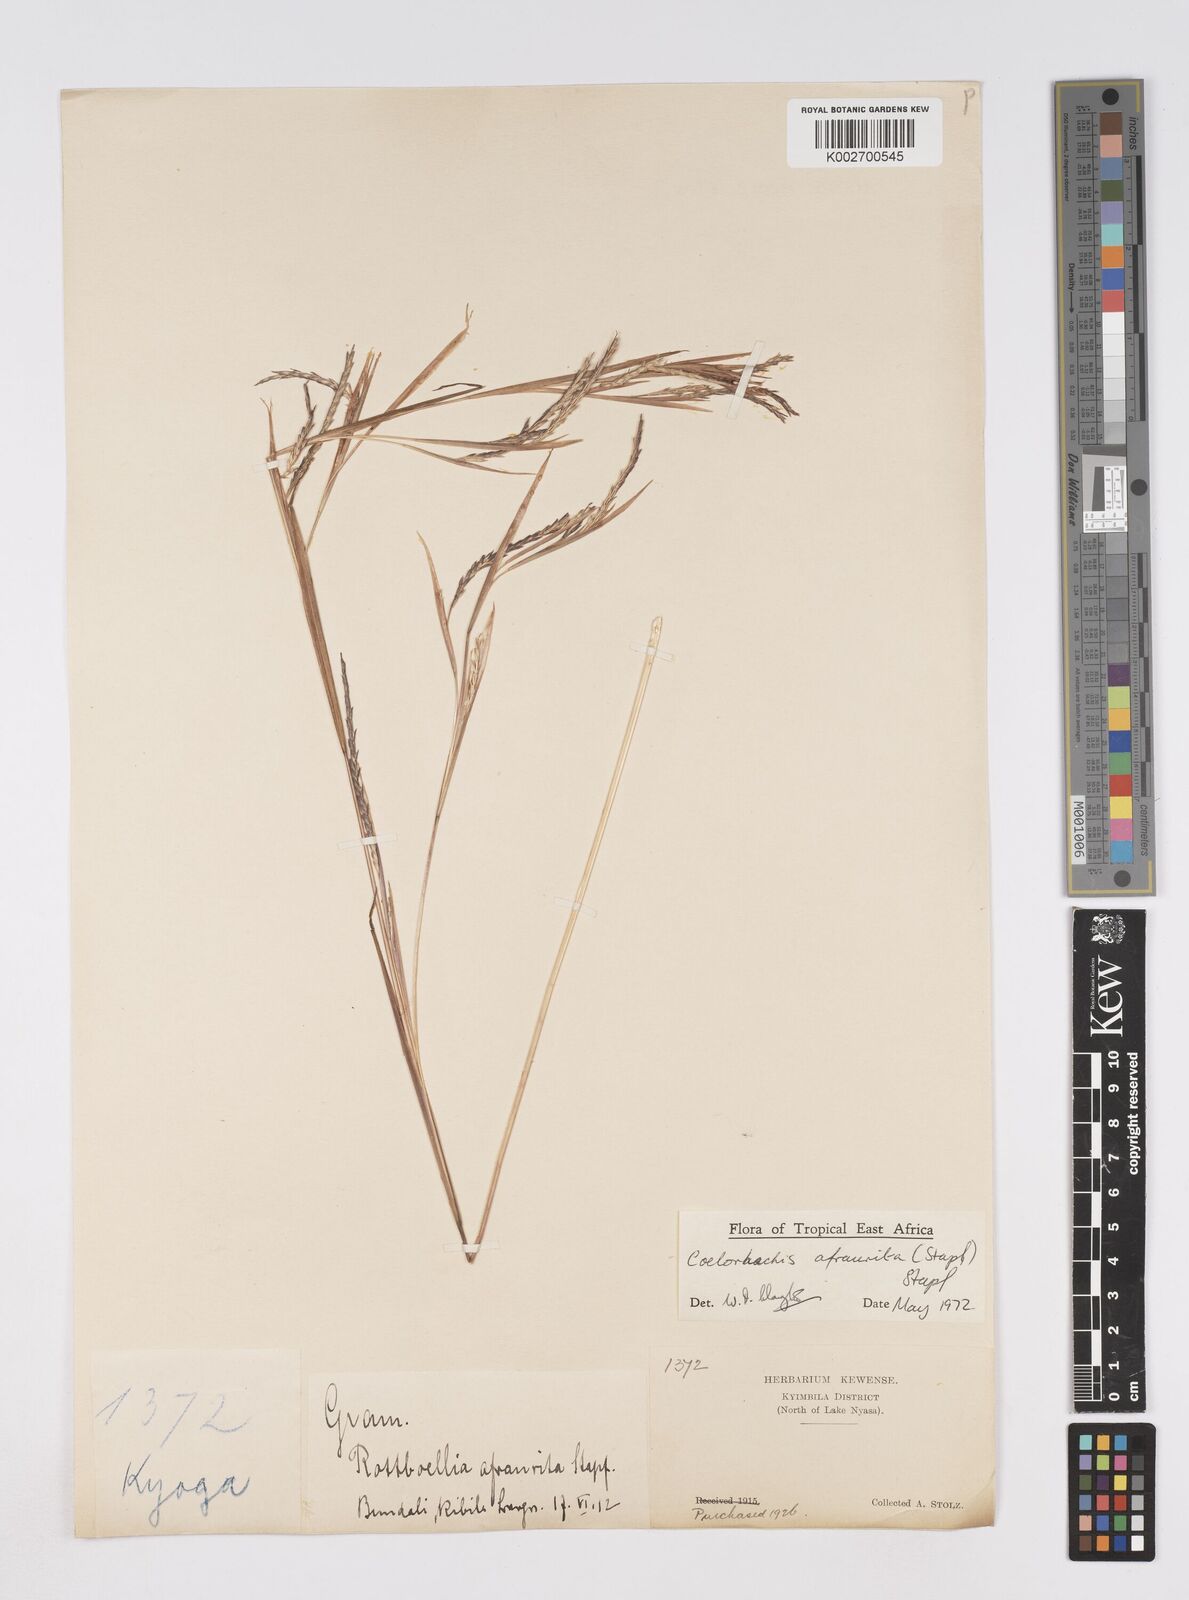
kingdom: Plantae
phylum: Tracheophyta
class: Liliopsida
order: Poales
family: Poaceae
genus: Rottboellia
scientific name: Rottboellia afraurita
